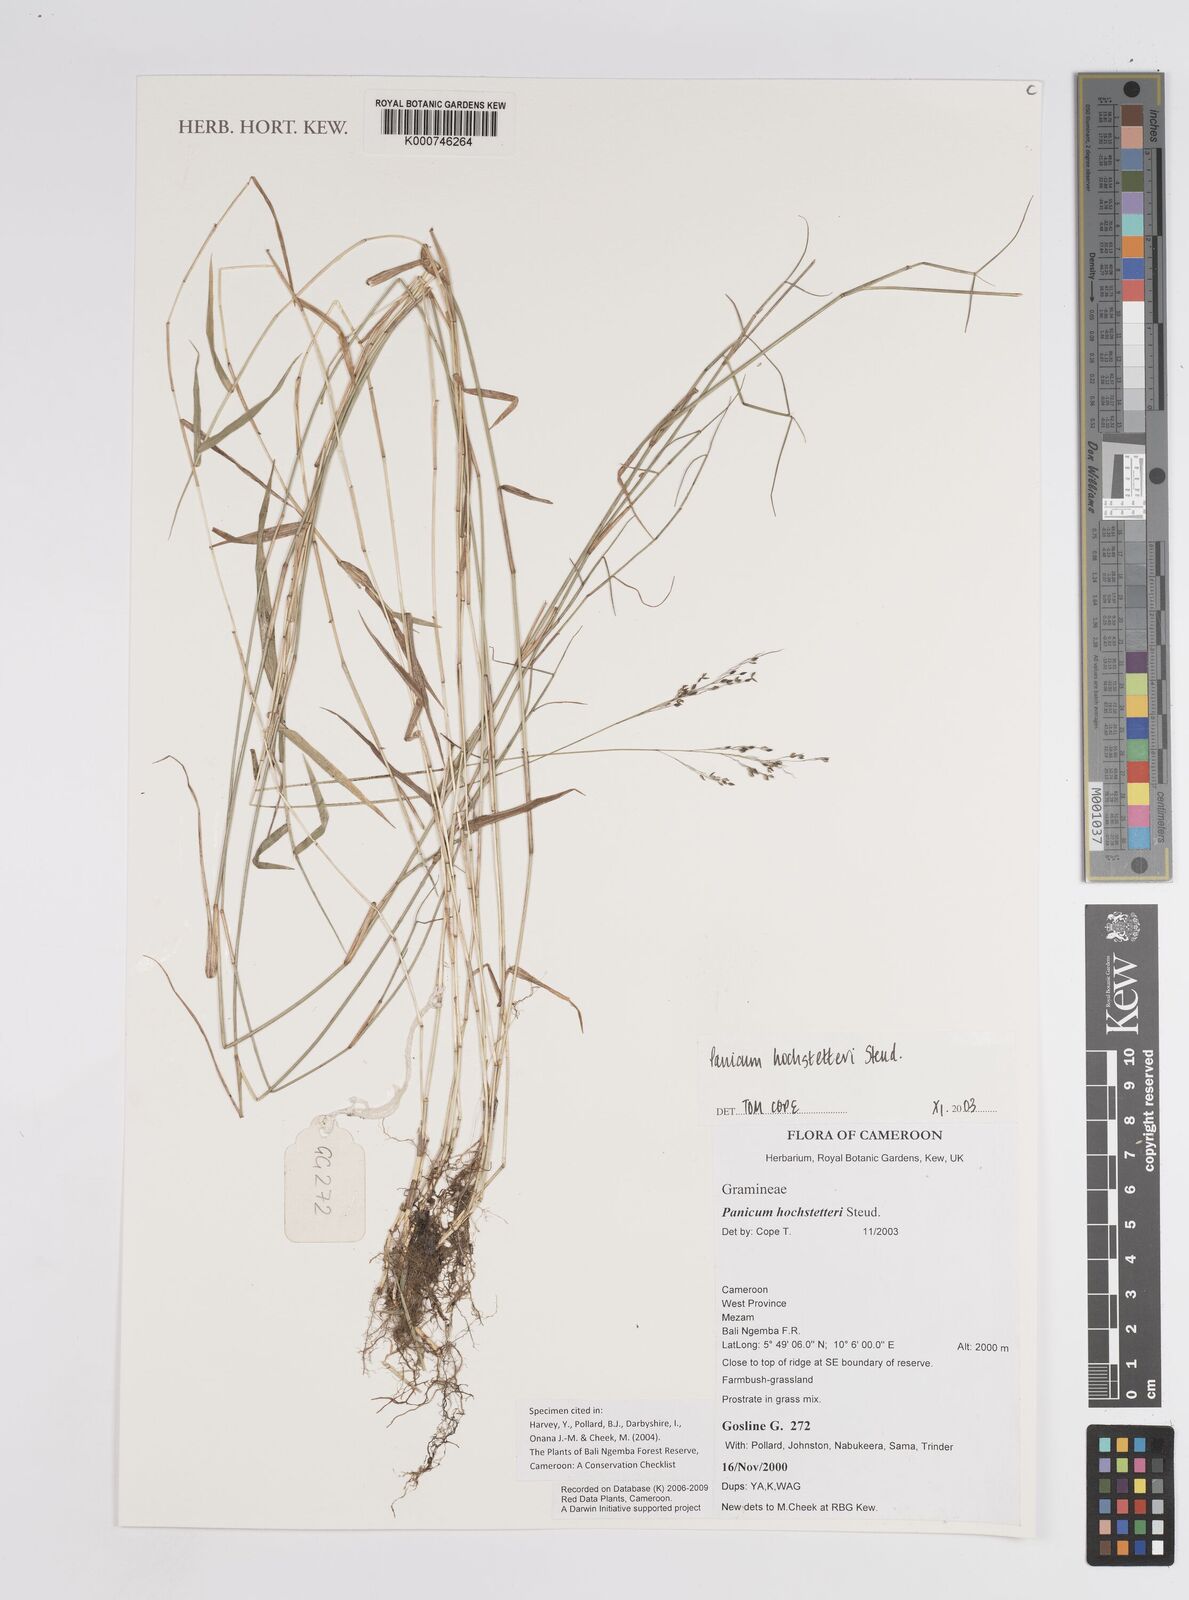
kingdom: Plantae
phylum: Tracheophyta
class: Liliopsida
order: Poales
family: Poaceae
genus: Panicum
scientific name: Panicum hochstetteri
